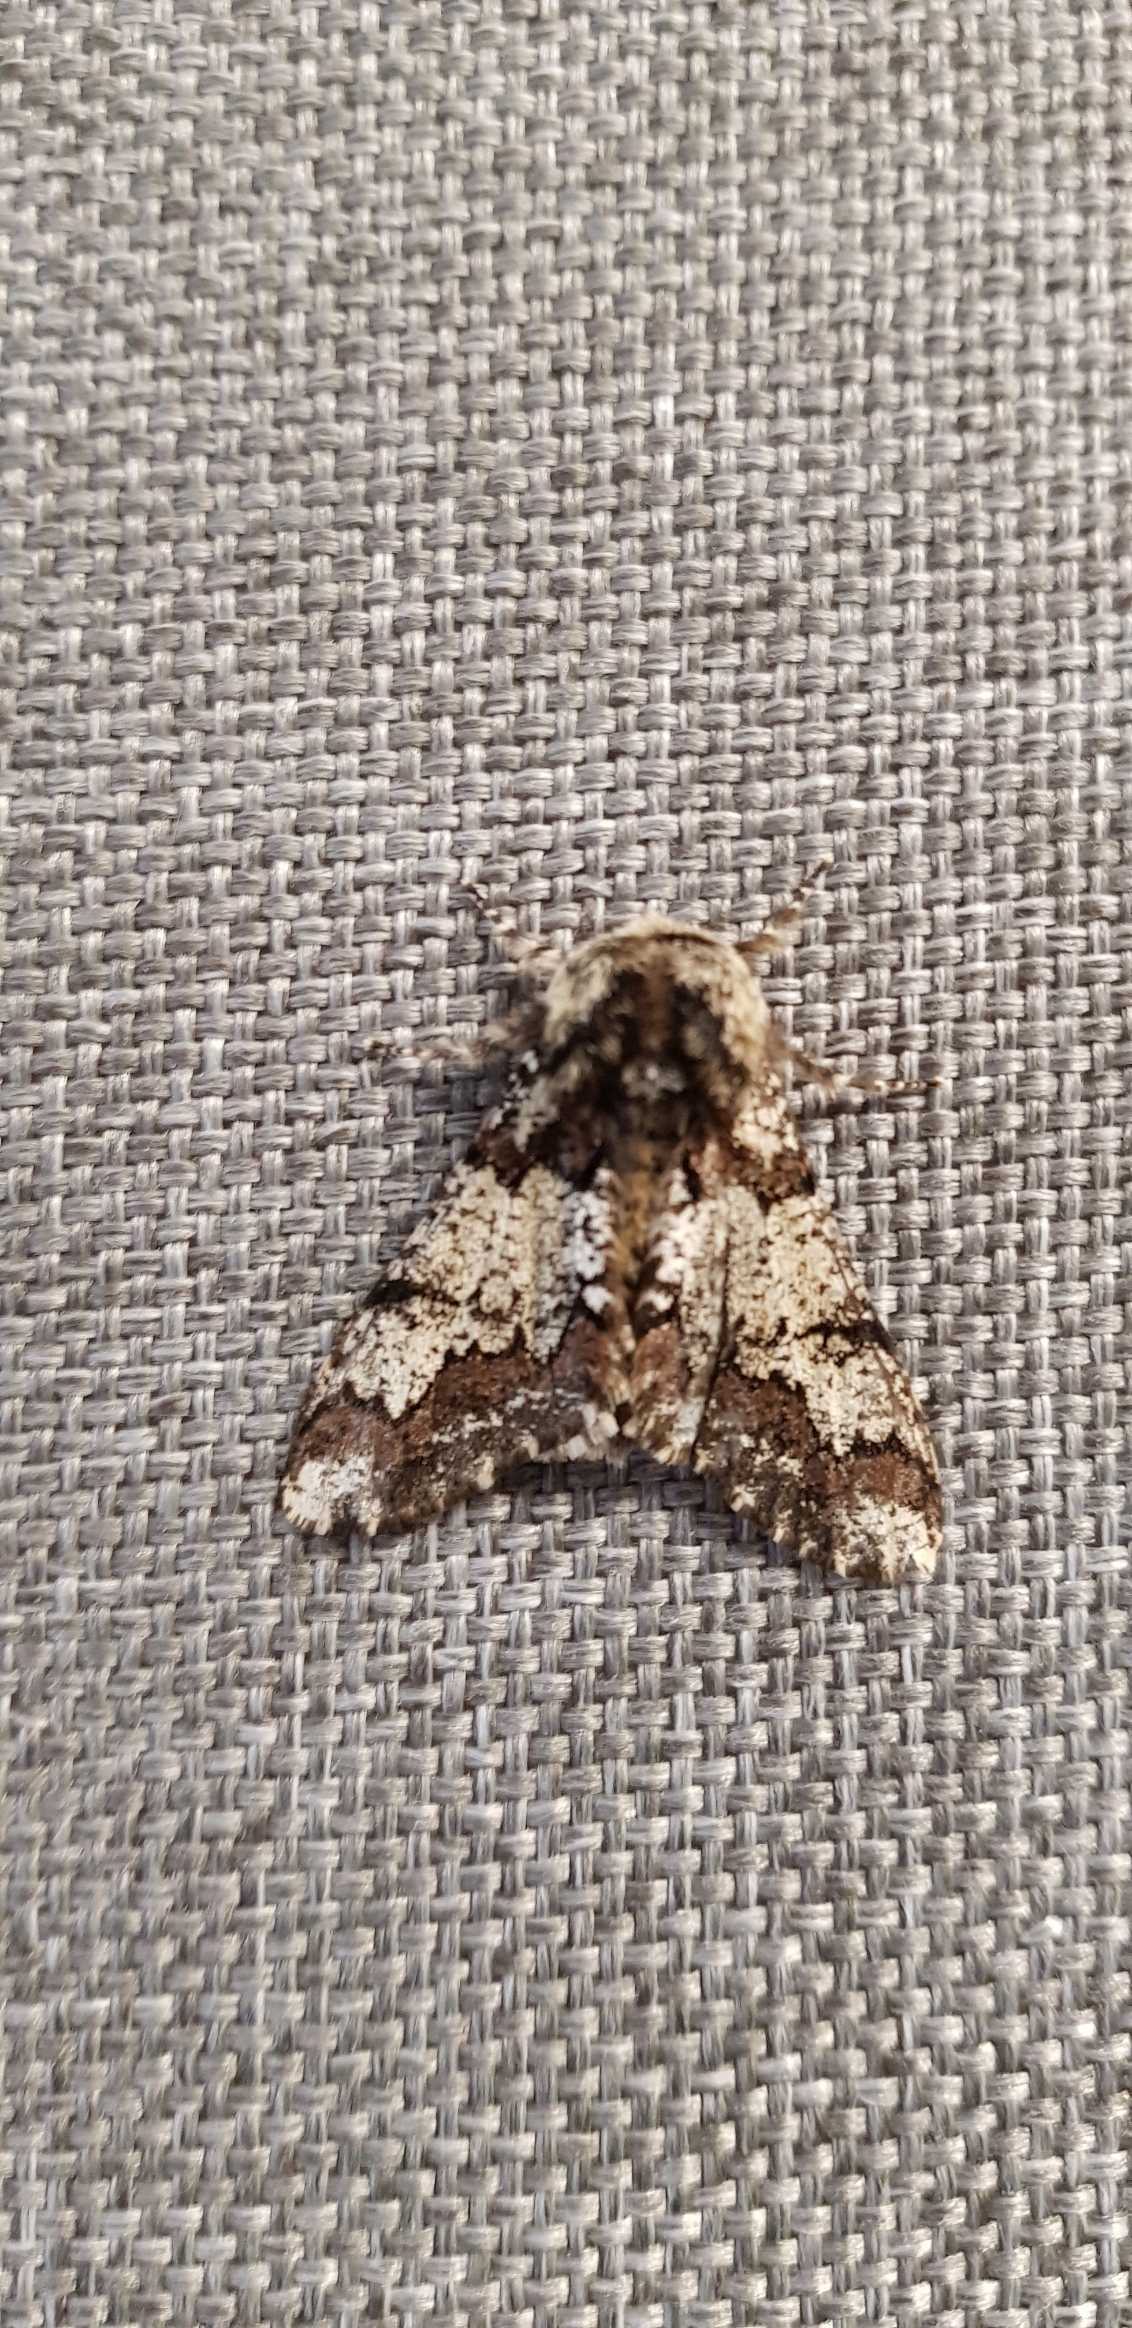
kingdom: Animalia
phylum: Arthropoda
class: Insecta
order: Lepidoptera
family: Geometridae
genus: Biston
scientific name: Biston strataria
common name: Broget vintermåler
